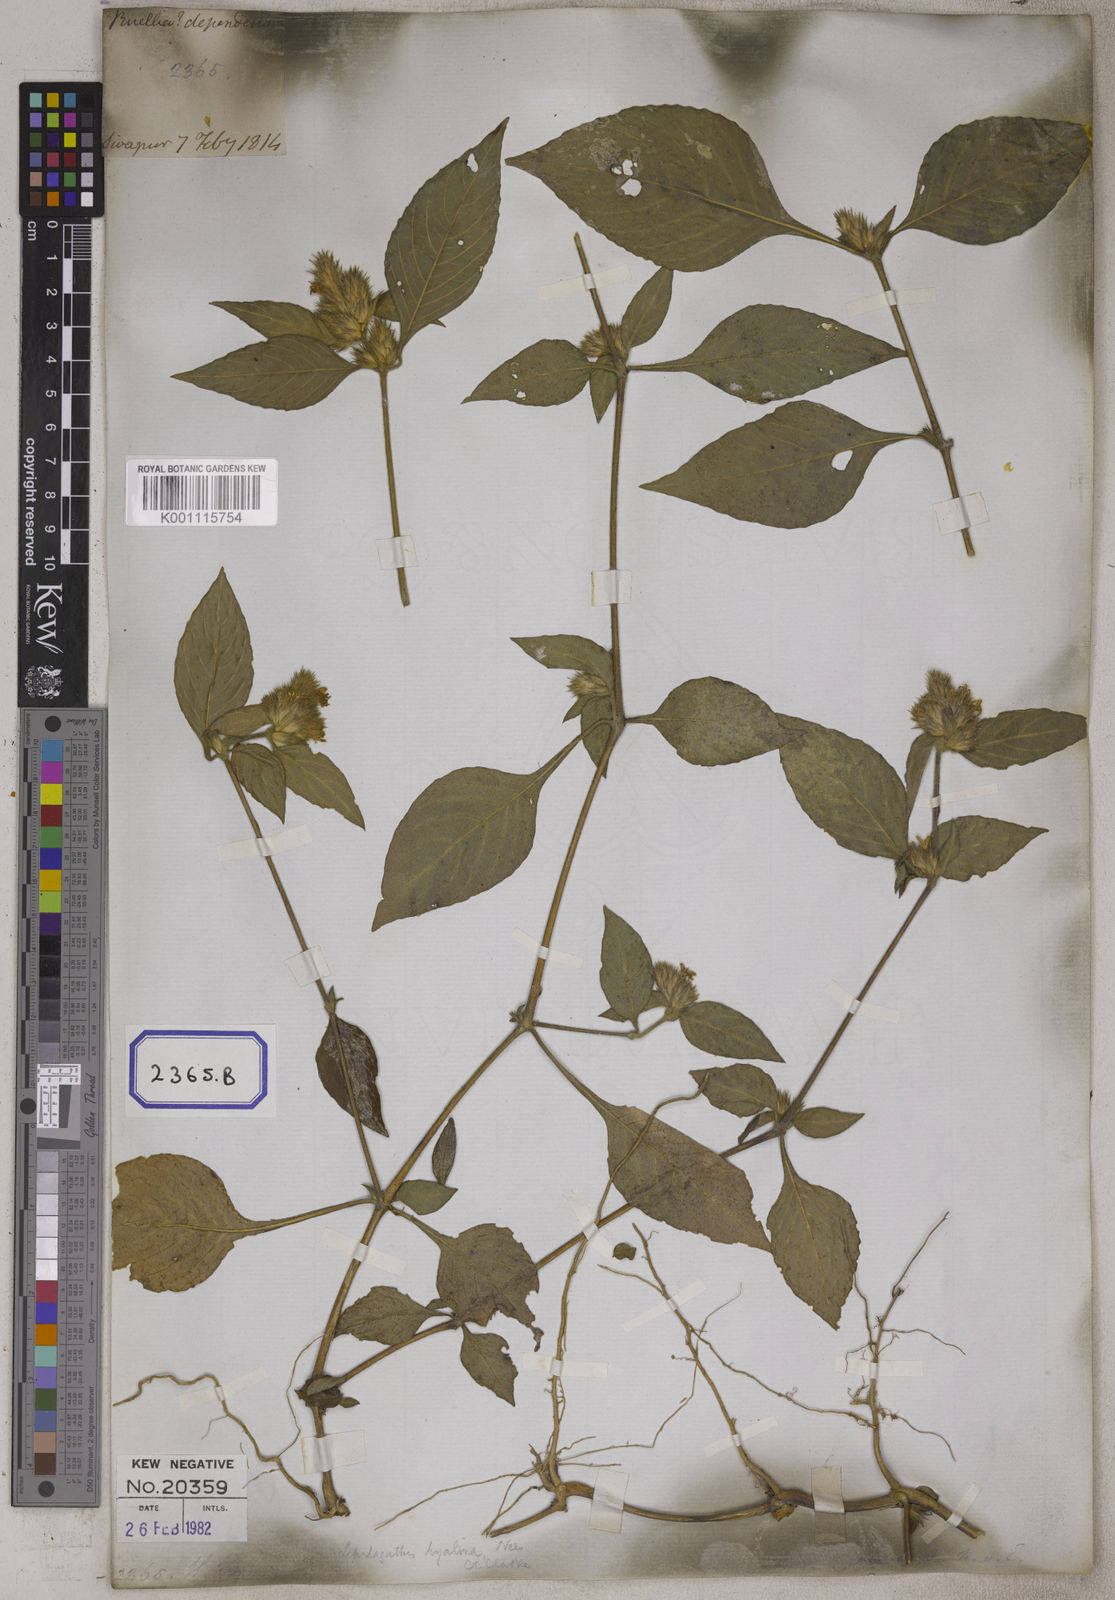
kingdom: Plantae
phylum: Tracheophyta
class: Magnoliopsida
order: Lamiales
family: Acanthaceae
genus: Lepidagathis
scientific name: Lepidagathis incurva
